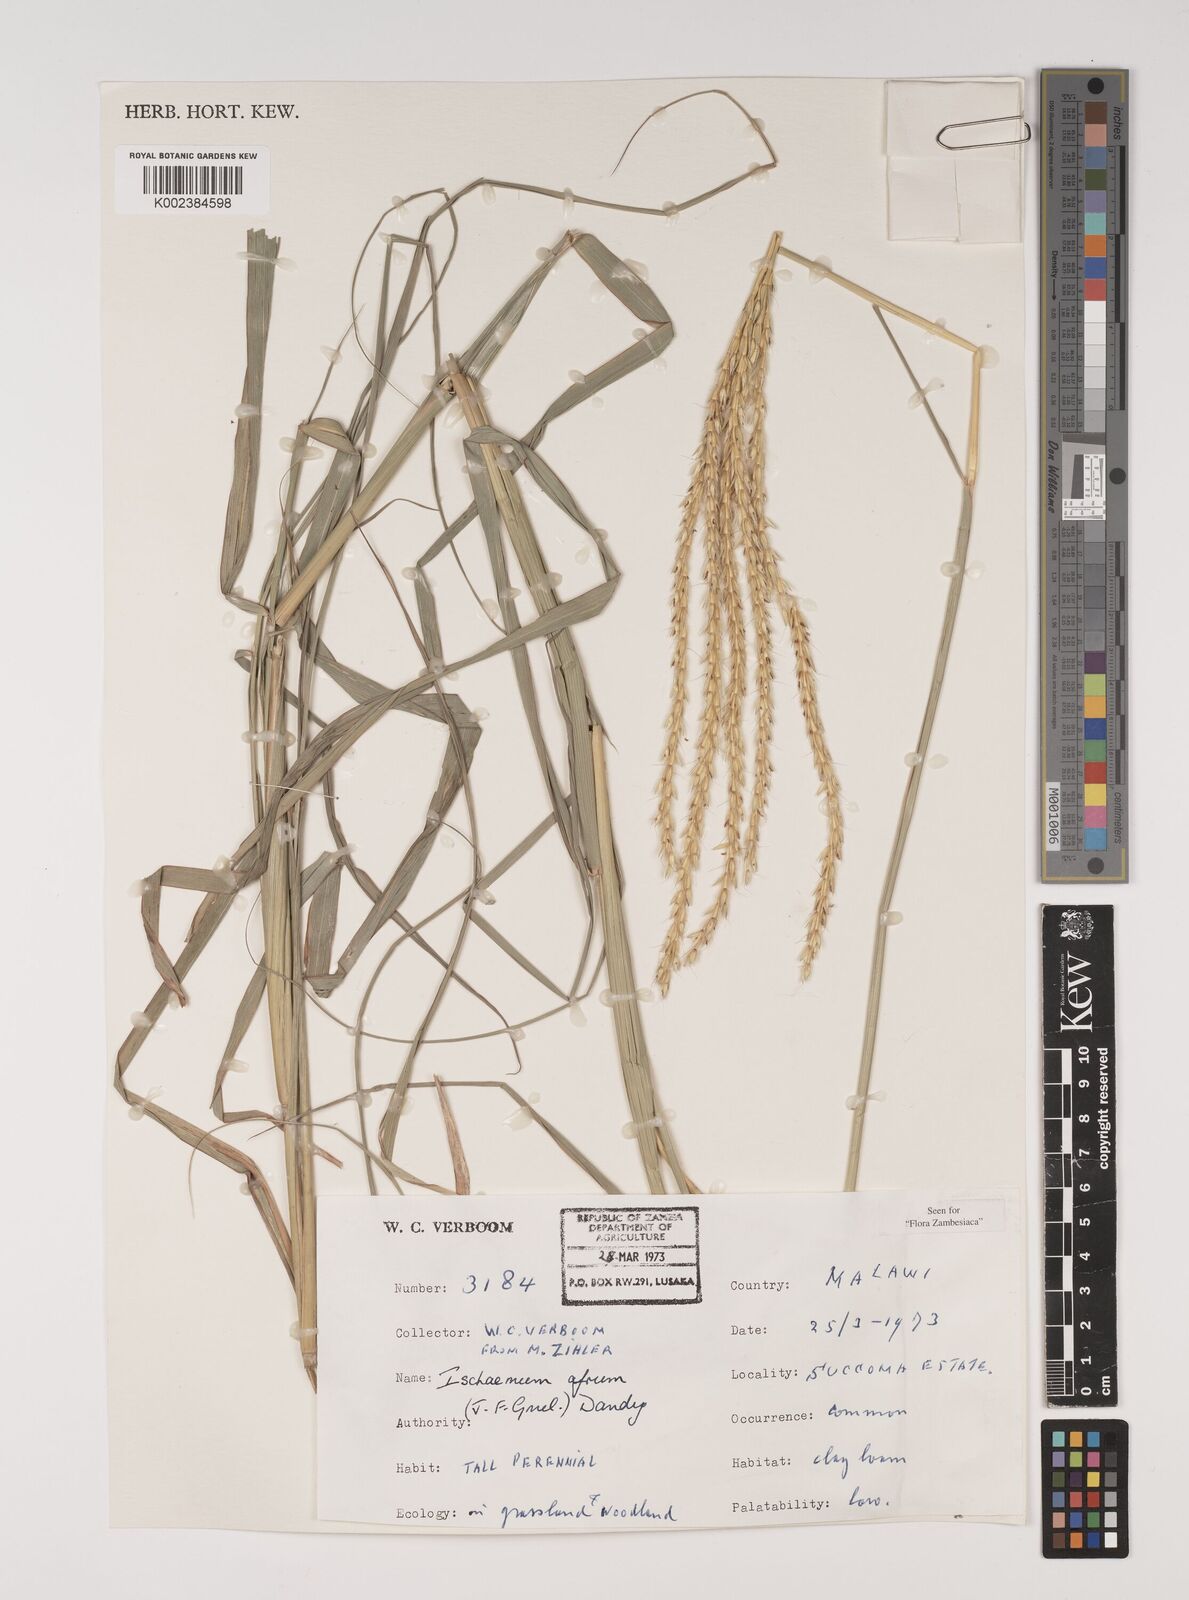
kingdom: Plantae
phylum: Tracheophyta
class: Liliopsida
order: Poales
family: Poaceae
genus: Ischaemum
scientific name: Ischaemum afrum
